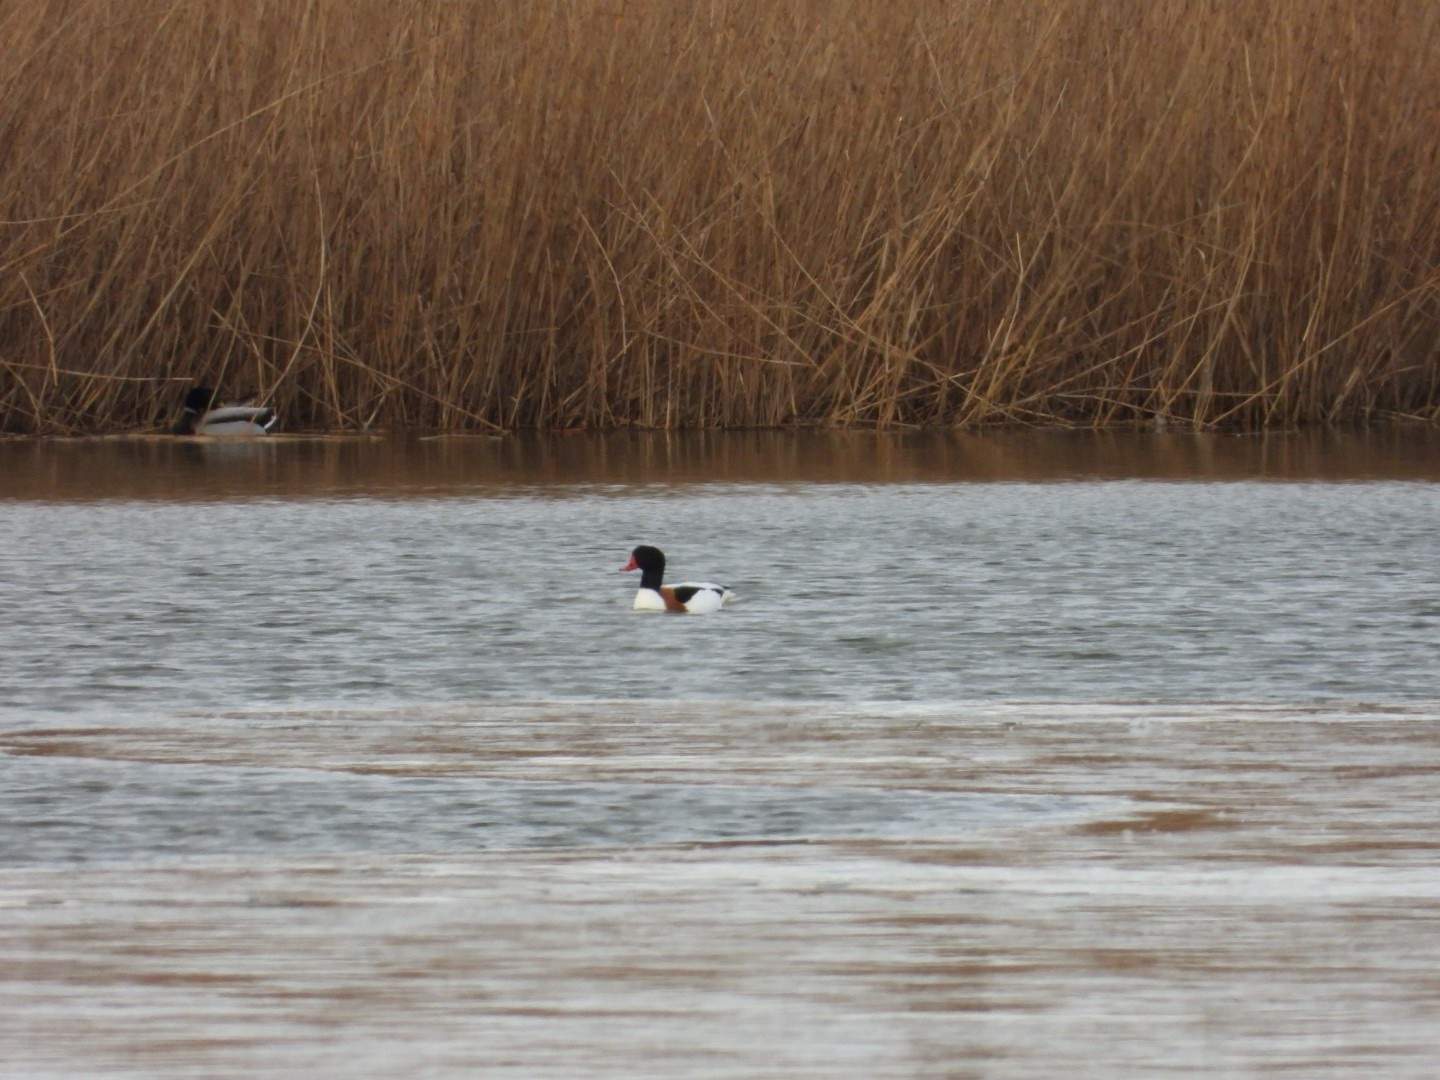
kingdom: Animalia
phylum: Chordata
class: Aves
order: Anseriformes
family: Anatidae
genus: Tadorna
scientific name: Tadorna tadorna
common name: Gravand
